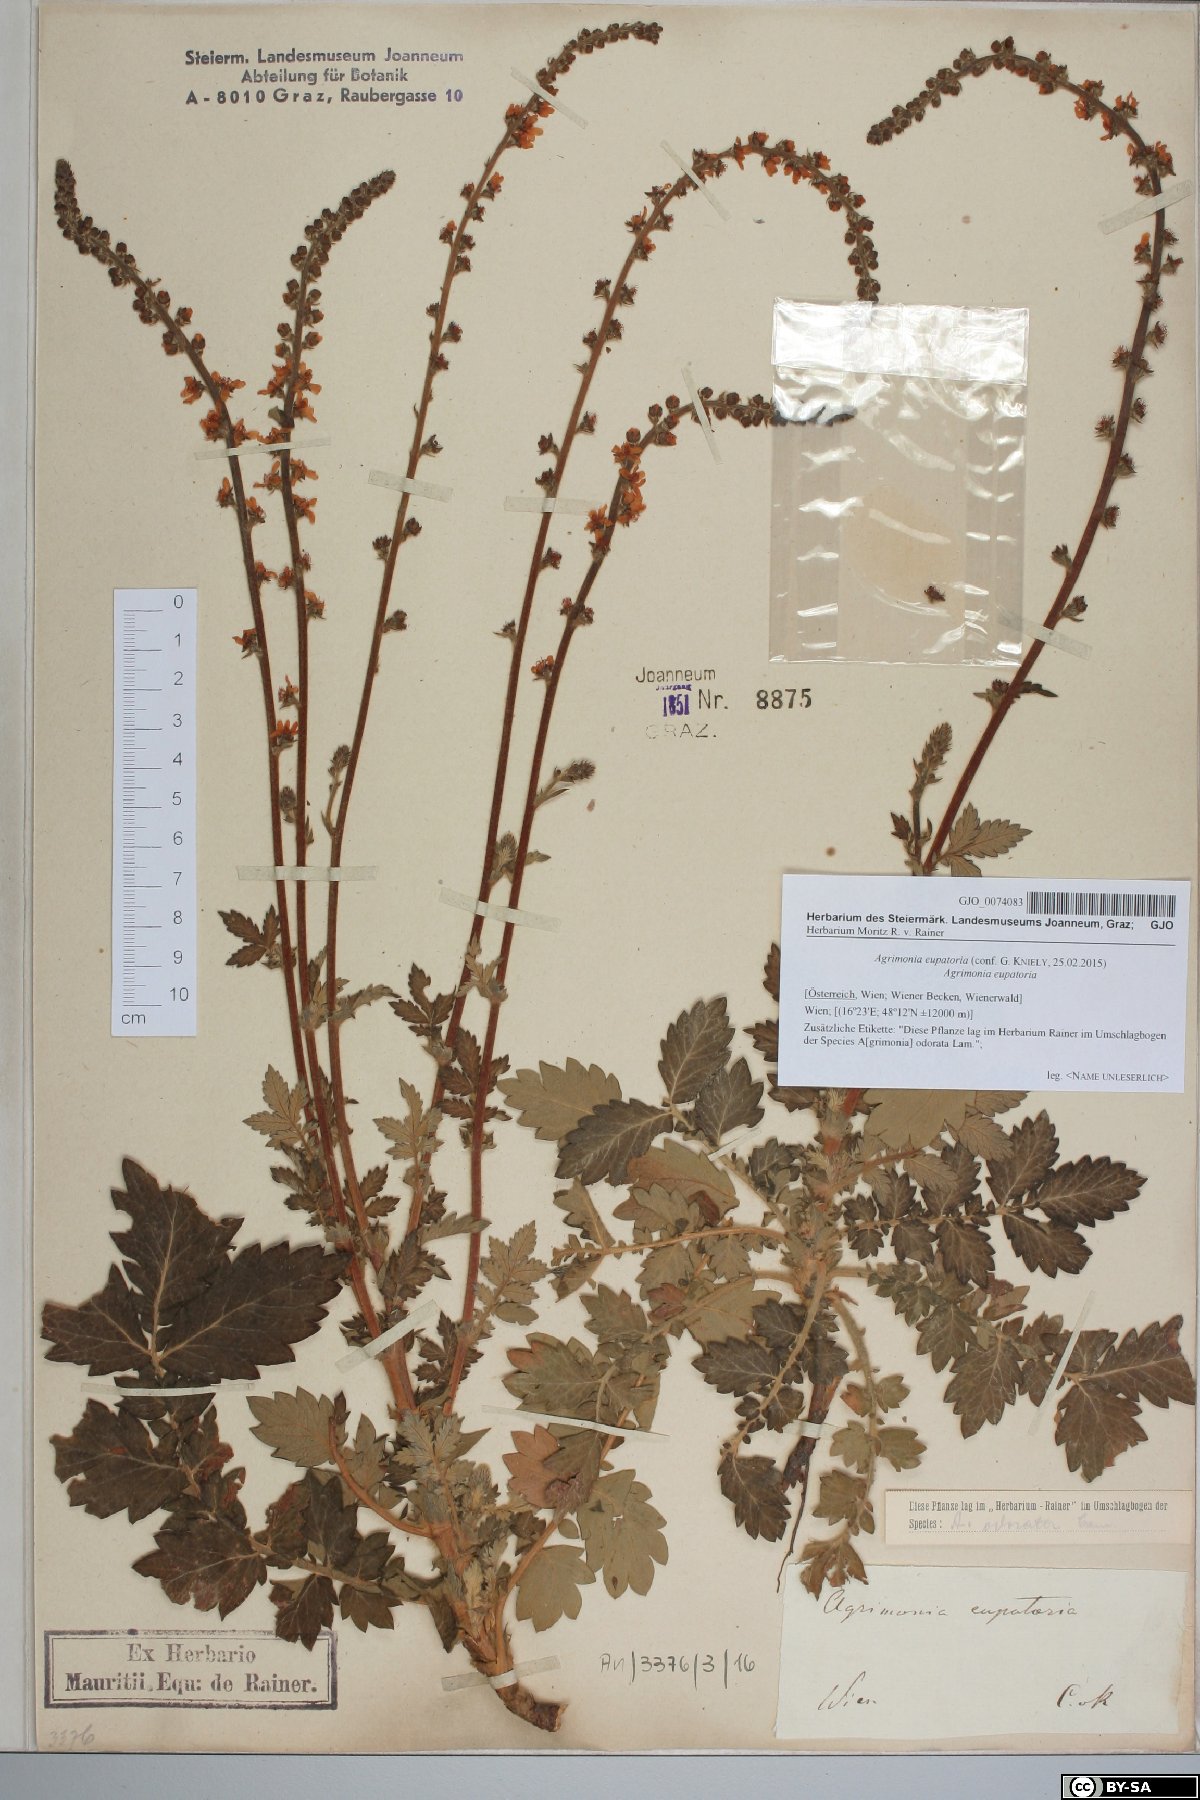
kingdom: Plantae
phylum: Tracheophyta
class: Magnoliopsida
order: Rosales
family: Rosaceae
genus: Agrimonia
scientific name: Agrimonia eupatoria
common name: Agrimony
